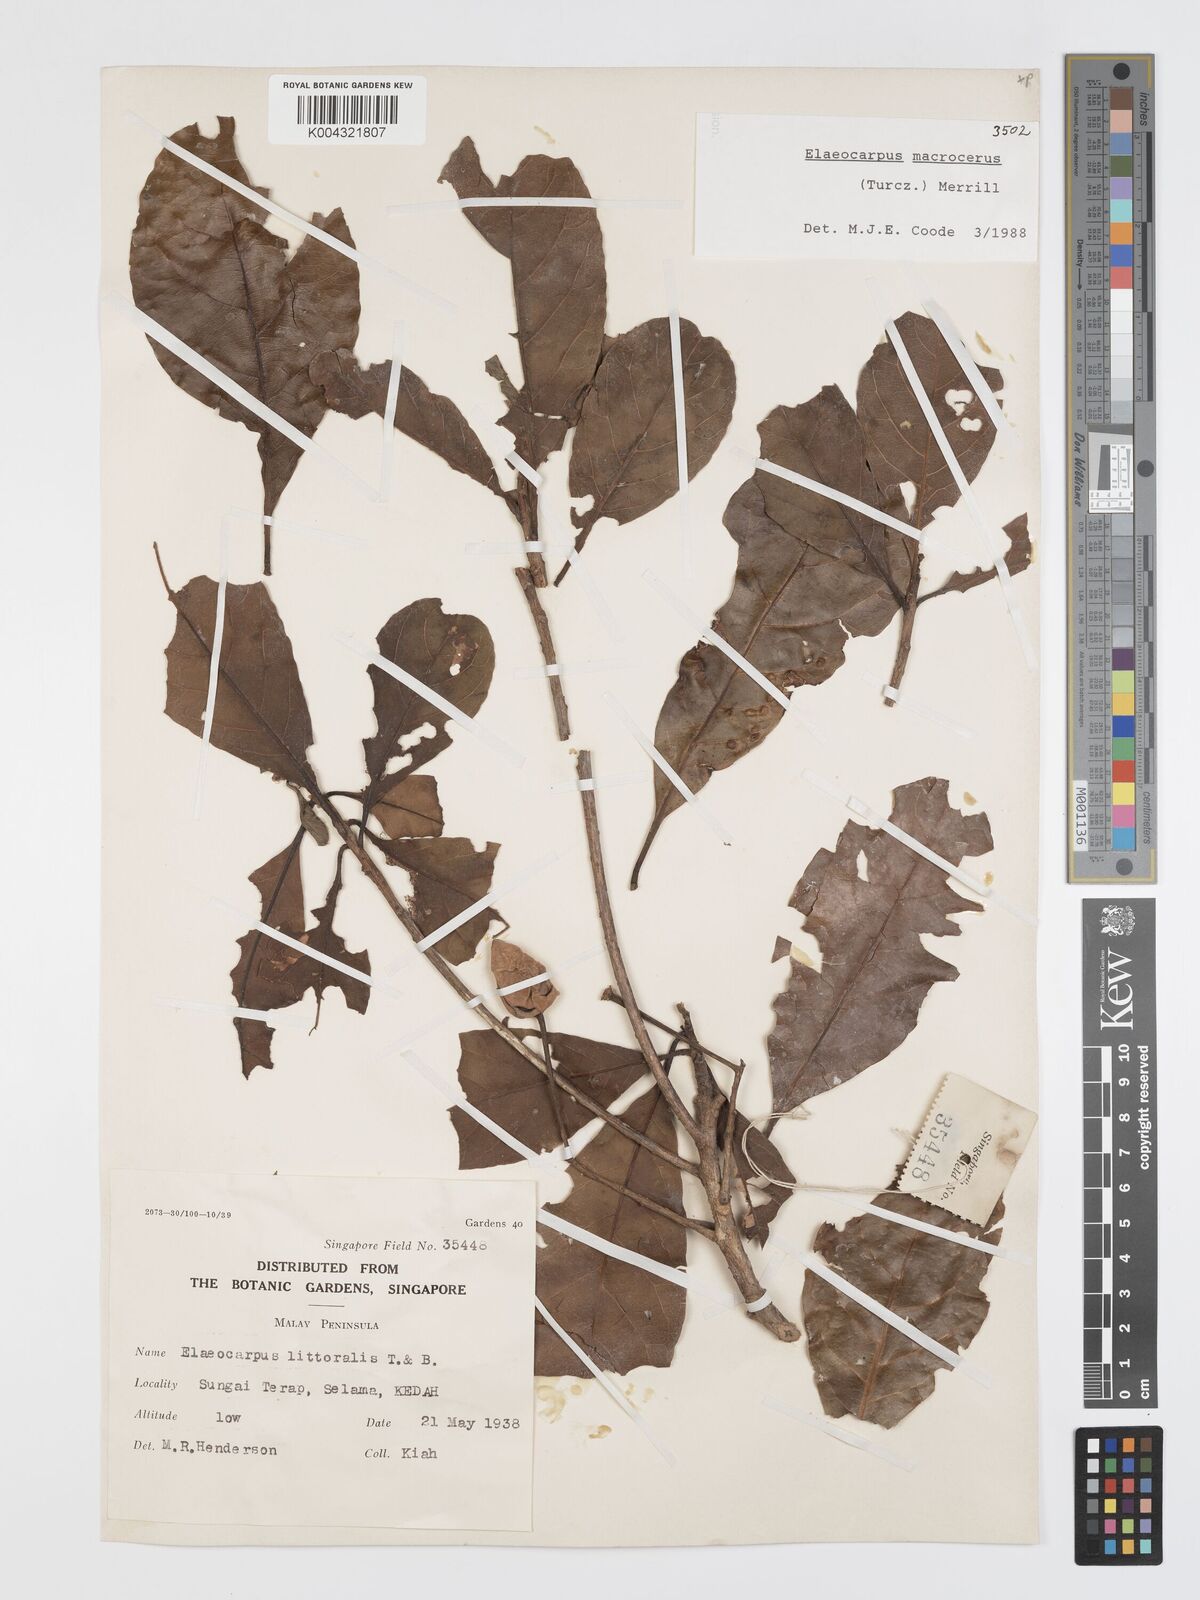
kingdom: Plantae
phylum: Tracheophyta
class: Magnoliopsida
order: Oxalidales
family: Elaeocarpaceae
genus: Elaeocarpus
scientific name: Elaeocarpus macrocerus
